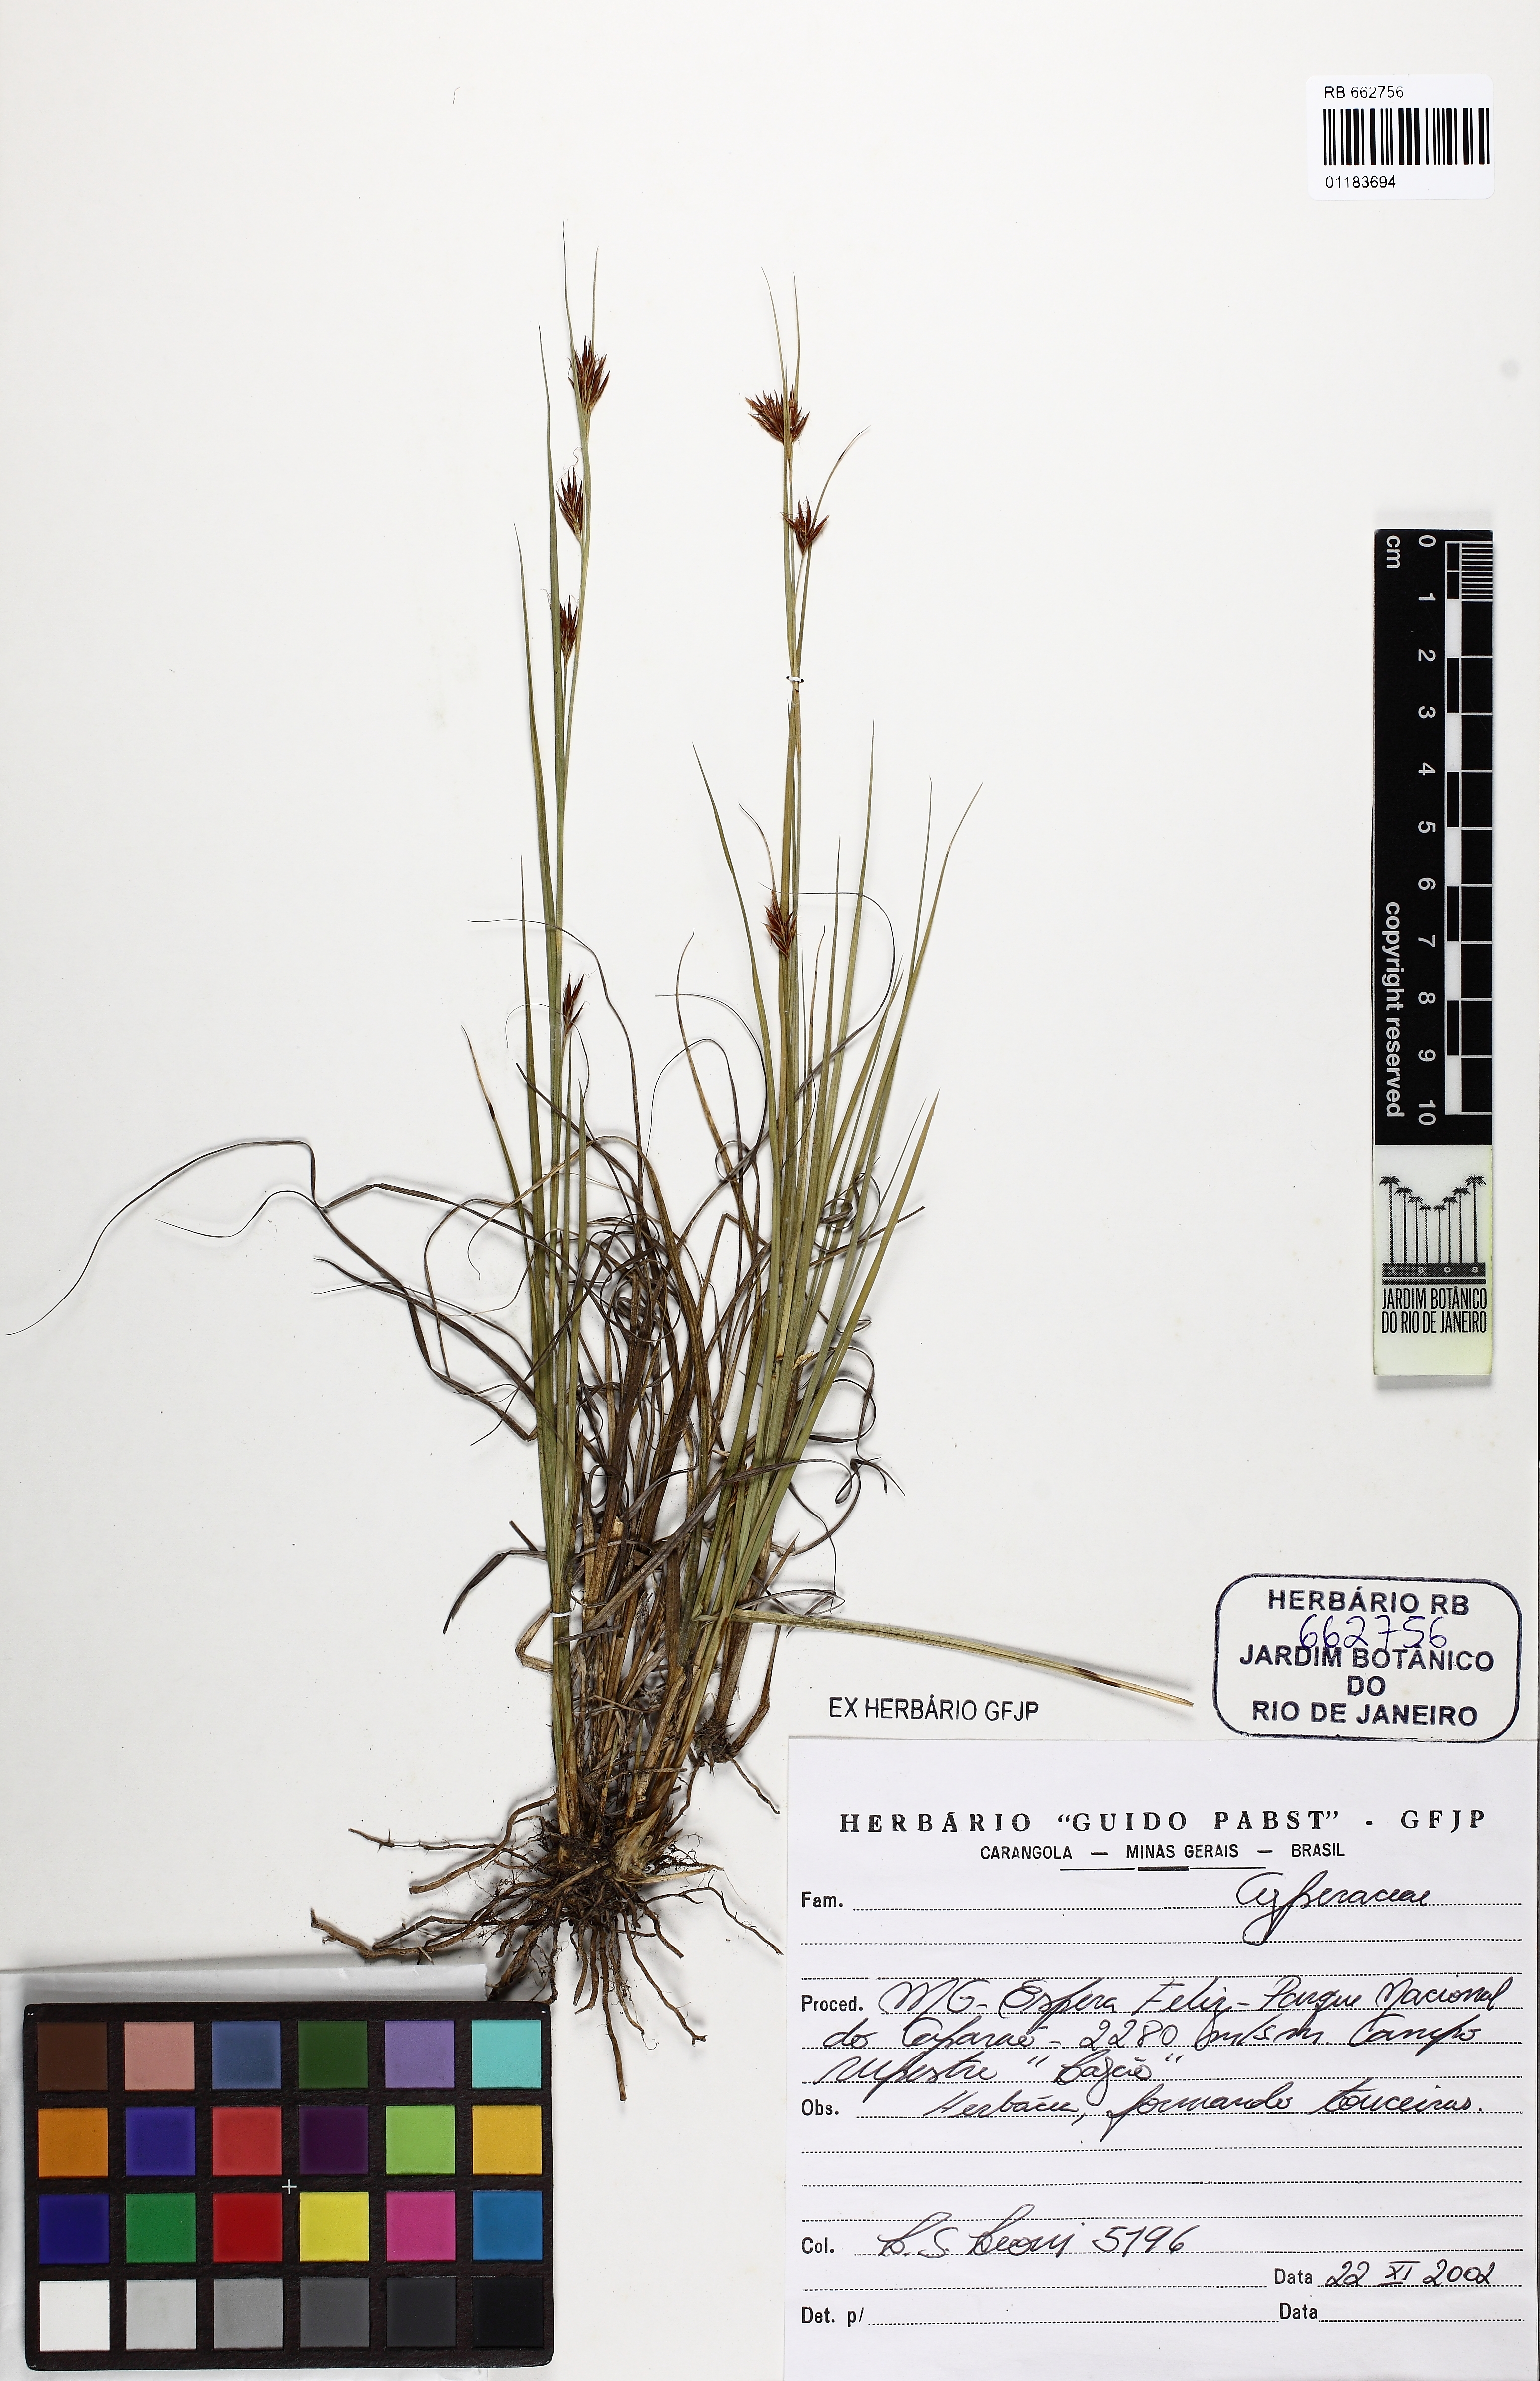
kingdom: Plantae
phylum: Tracheophyta
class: Liliopsida
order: Poales
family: Cyperaceae
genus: Rhynchospora
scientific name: Rhynchospora
